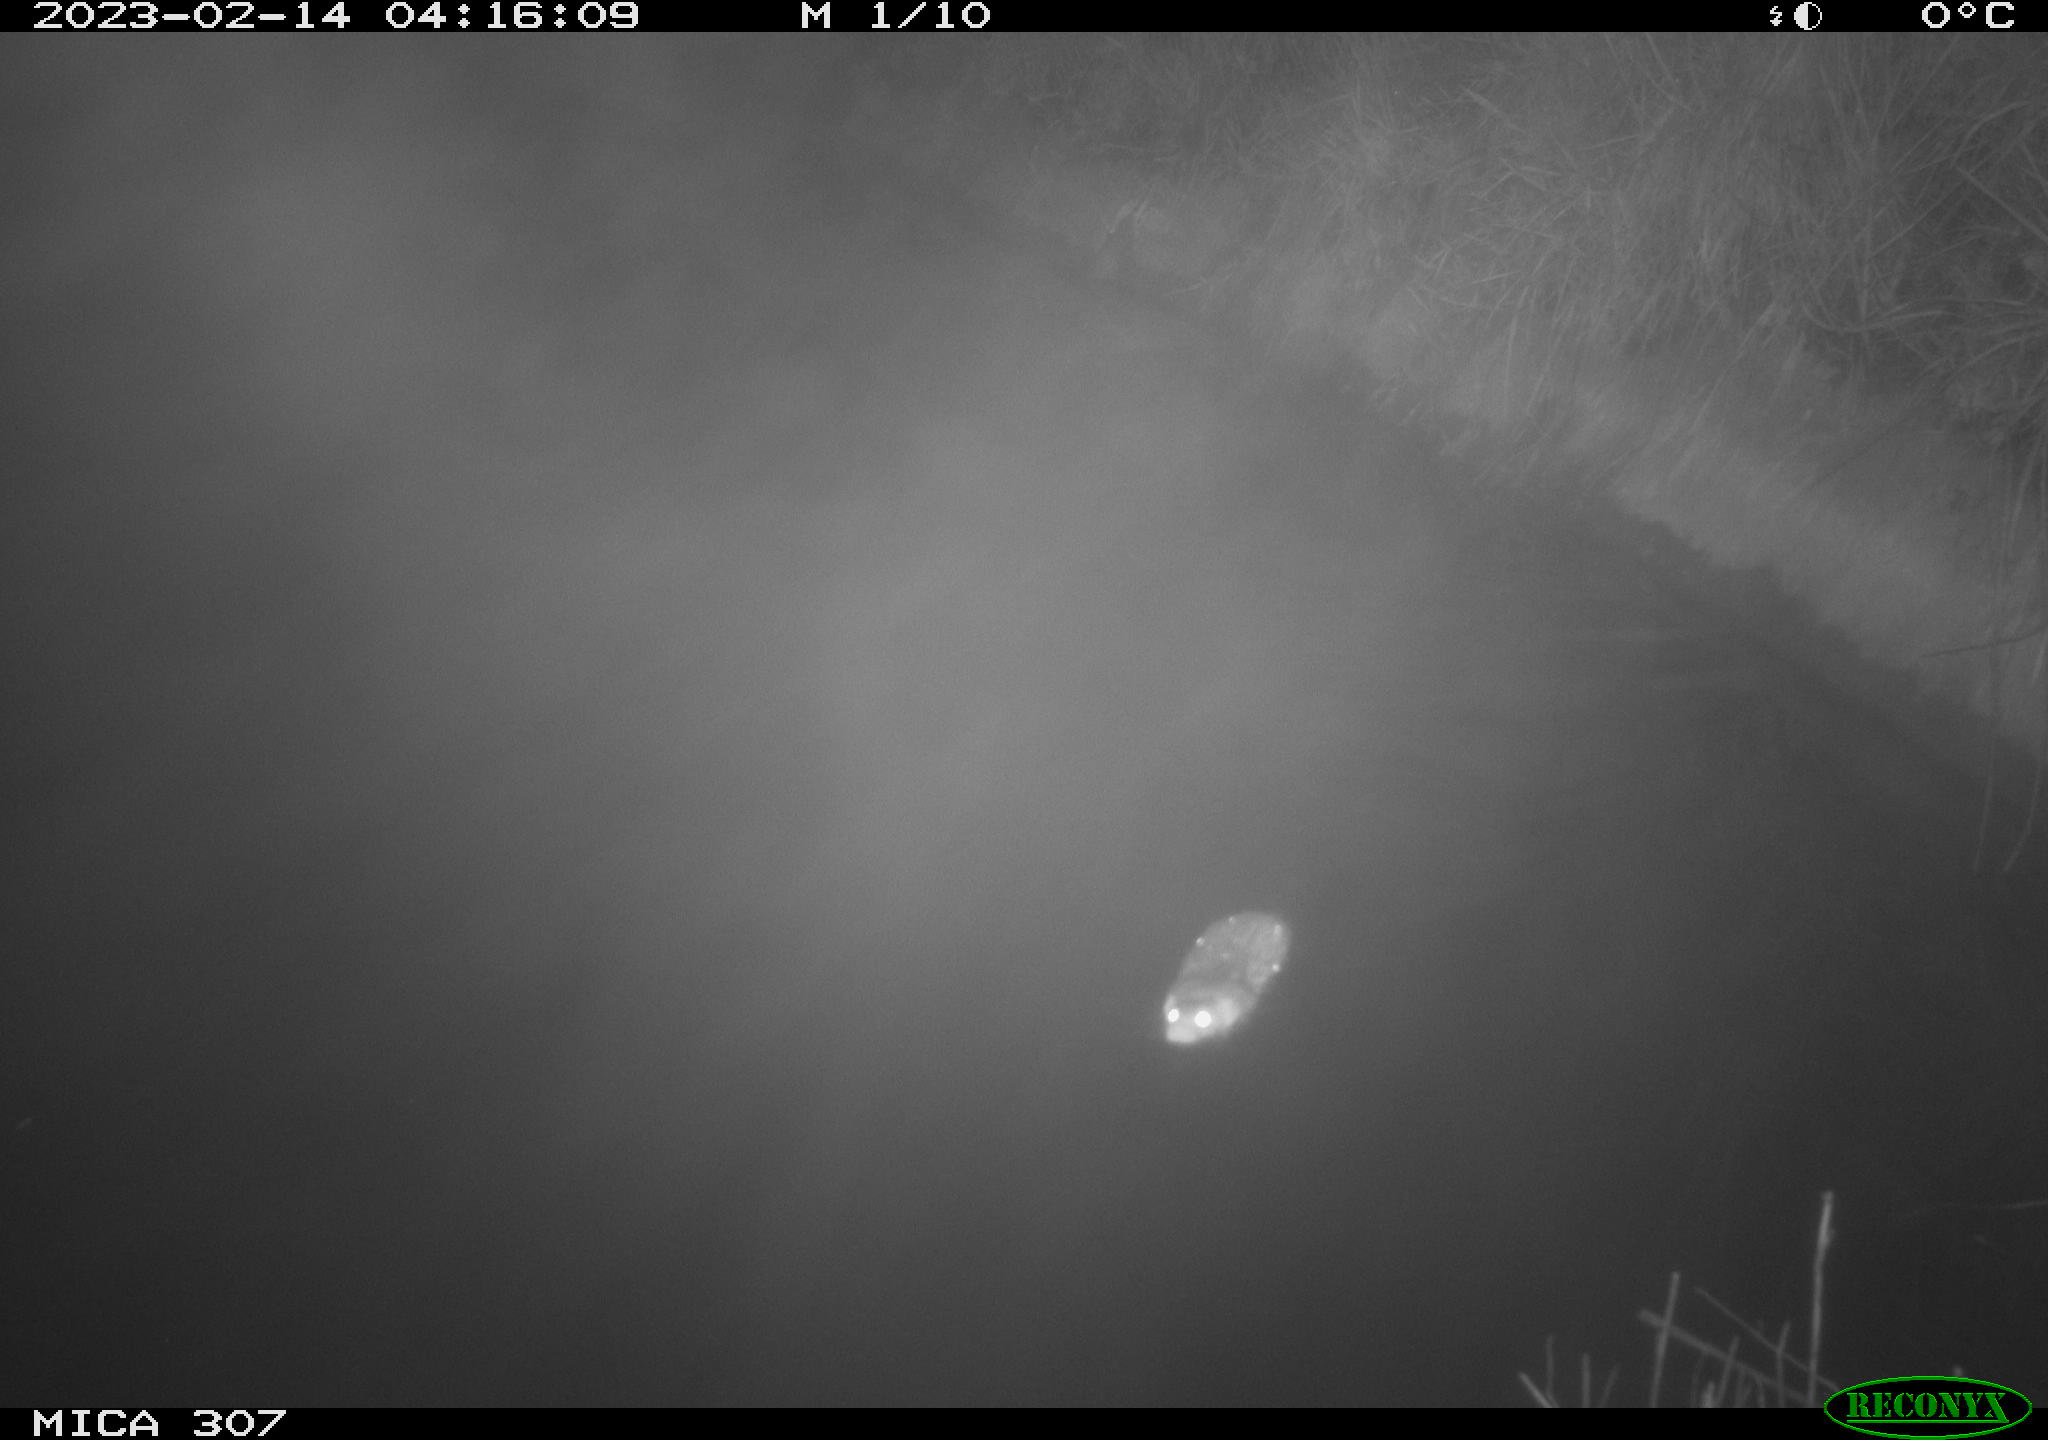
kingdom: Animalia
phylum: Chordata
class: Mammalia
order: Rodentia
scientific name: Rodentia
